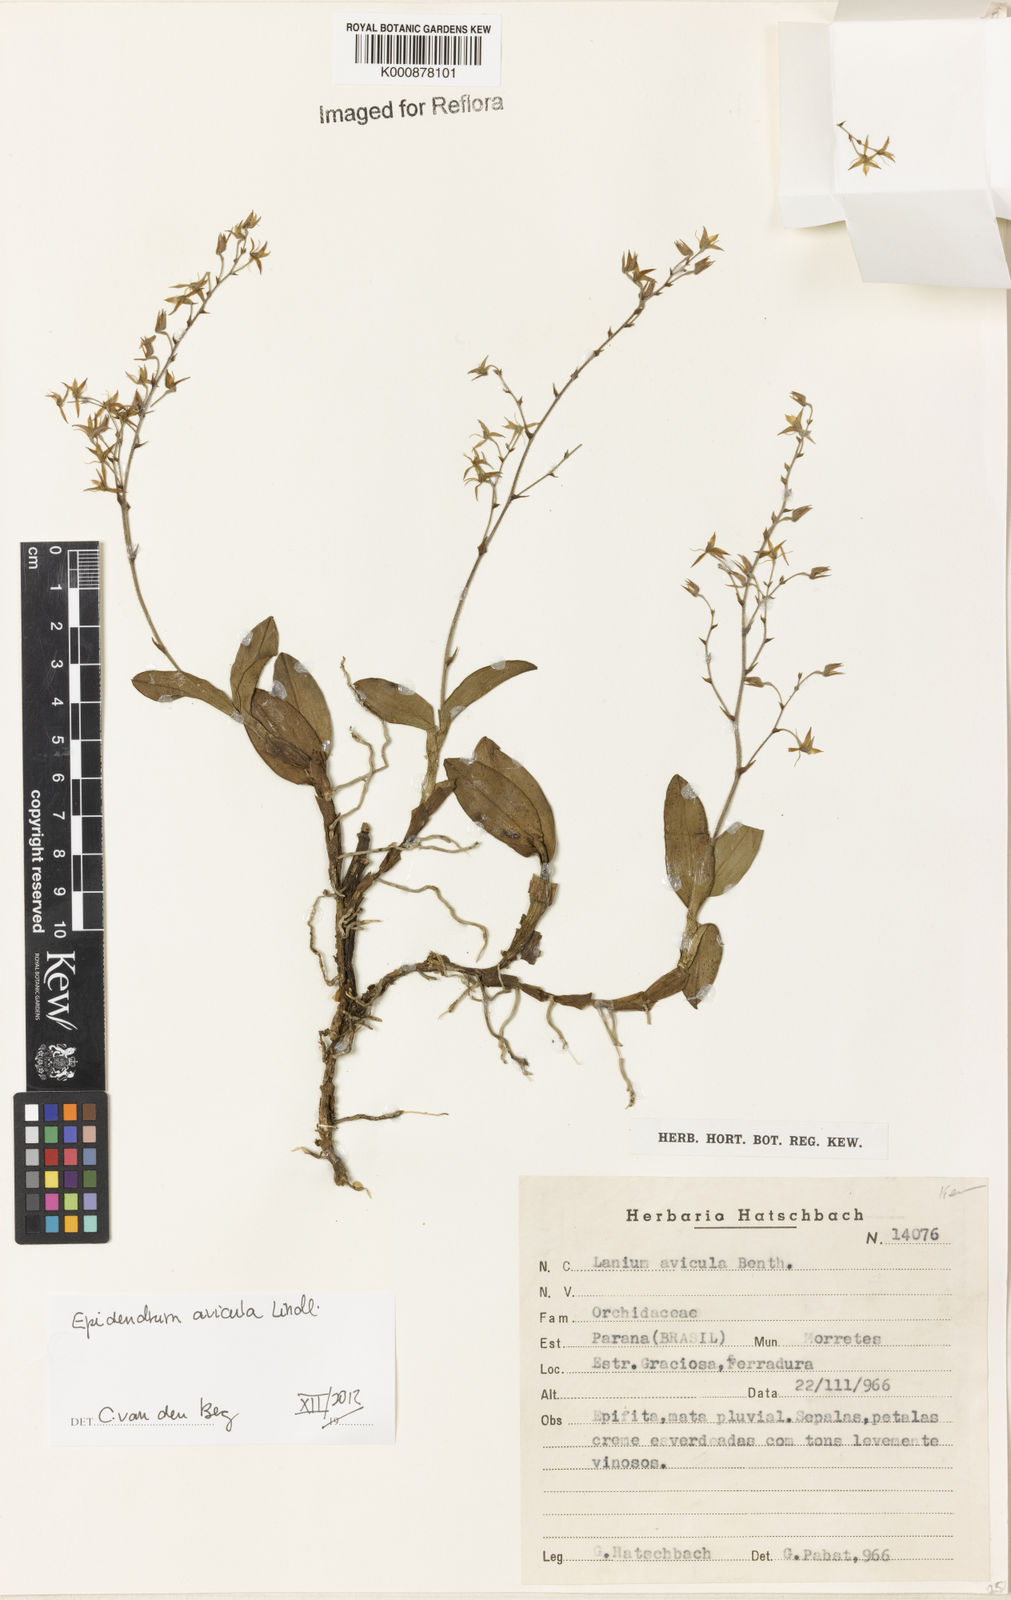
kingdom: Plantae
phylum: Tracheophyta
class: Liliopsida
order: Asparagales
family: Orchidaceae
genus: Epidendrum
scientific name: Epidendrum avicula
